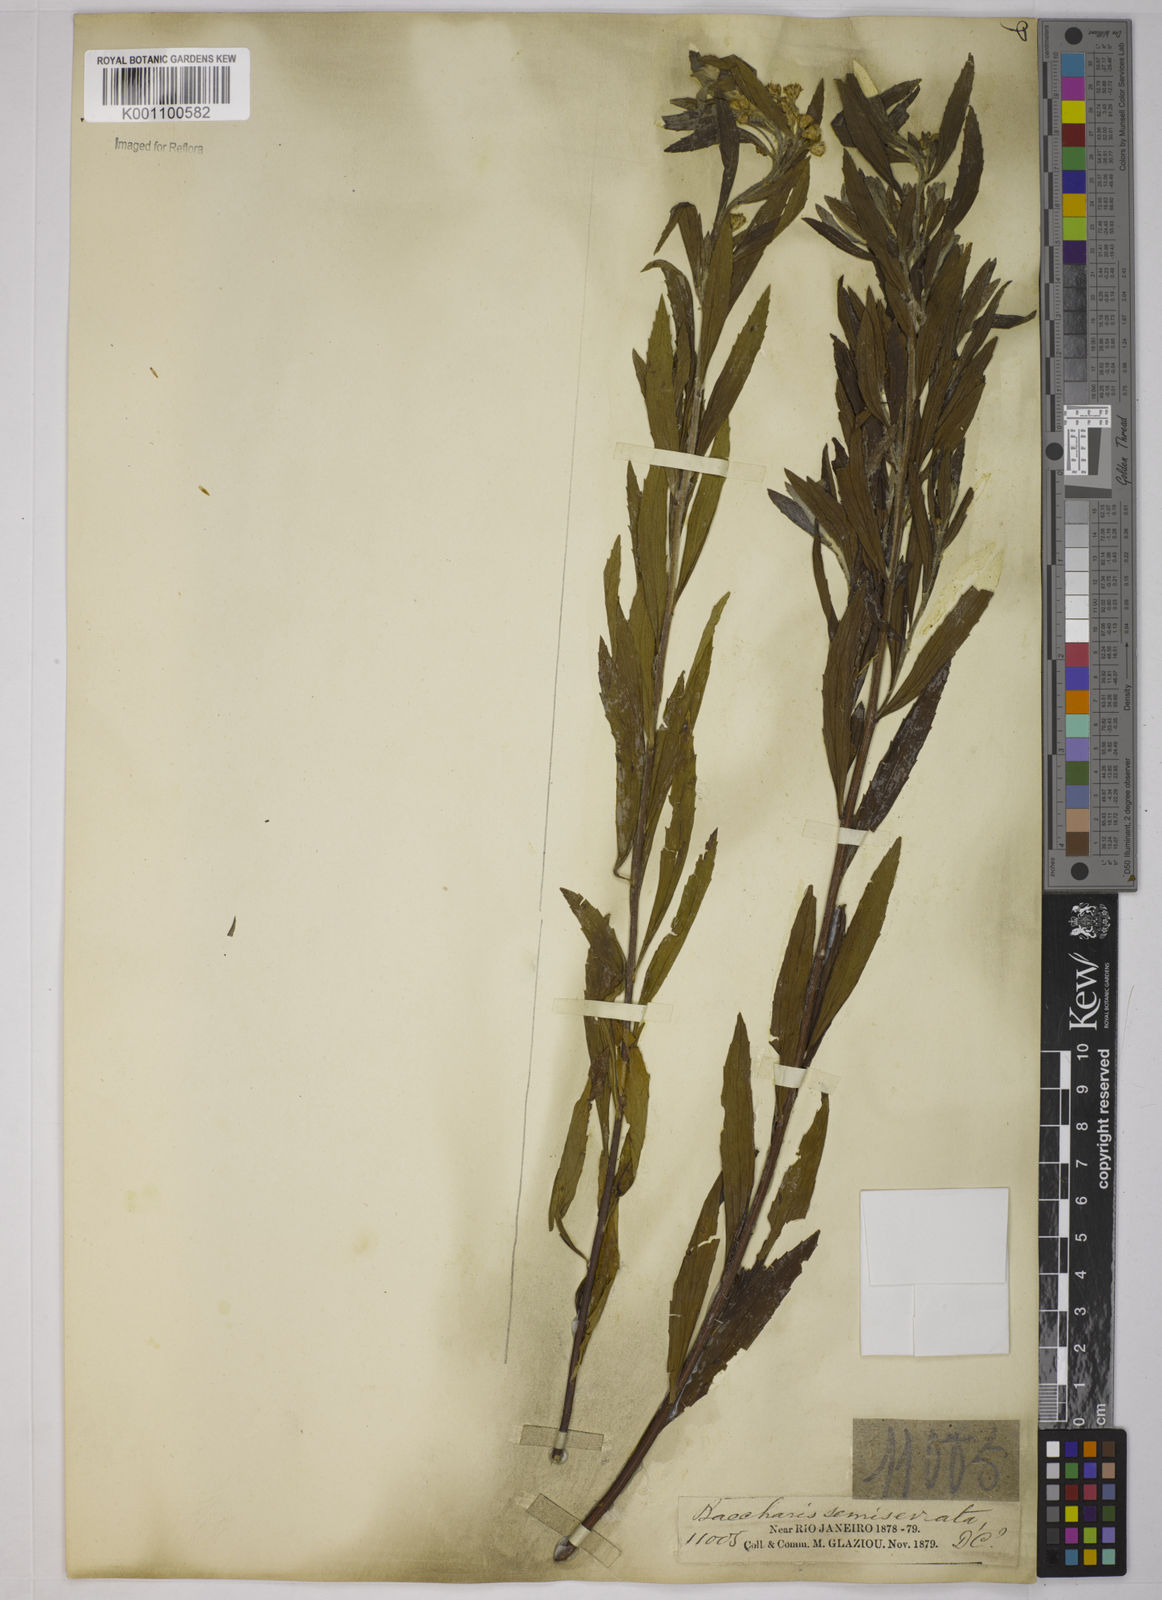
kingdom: Plantae
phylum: Tracheophyta
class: Magnoliopsida
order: Asterales
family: Asteraceae
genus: Baccharis
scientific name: Baccharis gnidiifolia
